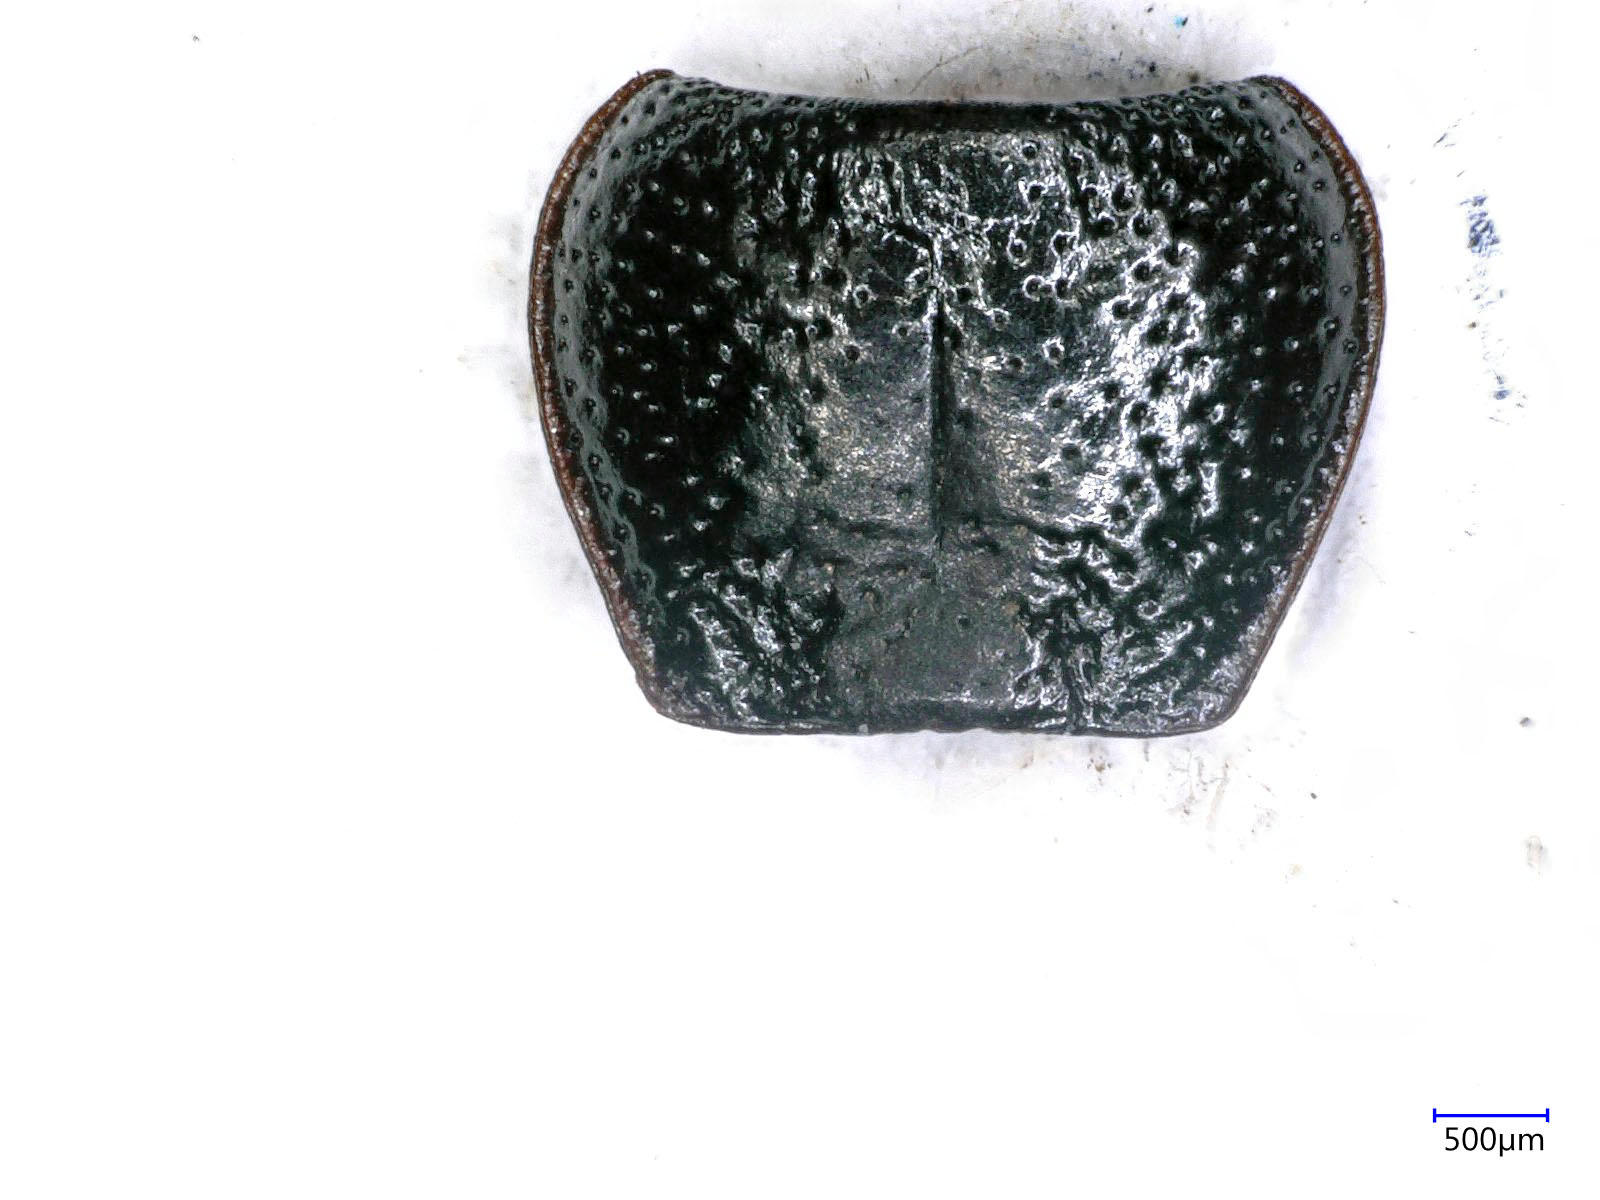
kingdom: Animalia
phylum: Arthropoda
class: Insecta
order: Coleoptera
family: Carabidae
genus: Dicheirus
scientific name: Dicheirus dilatatus
